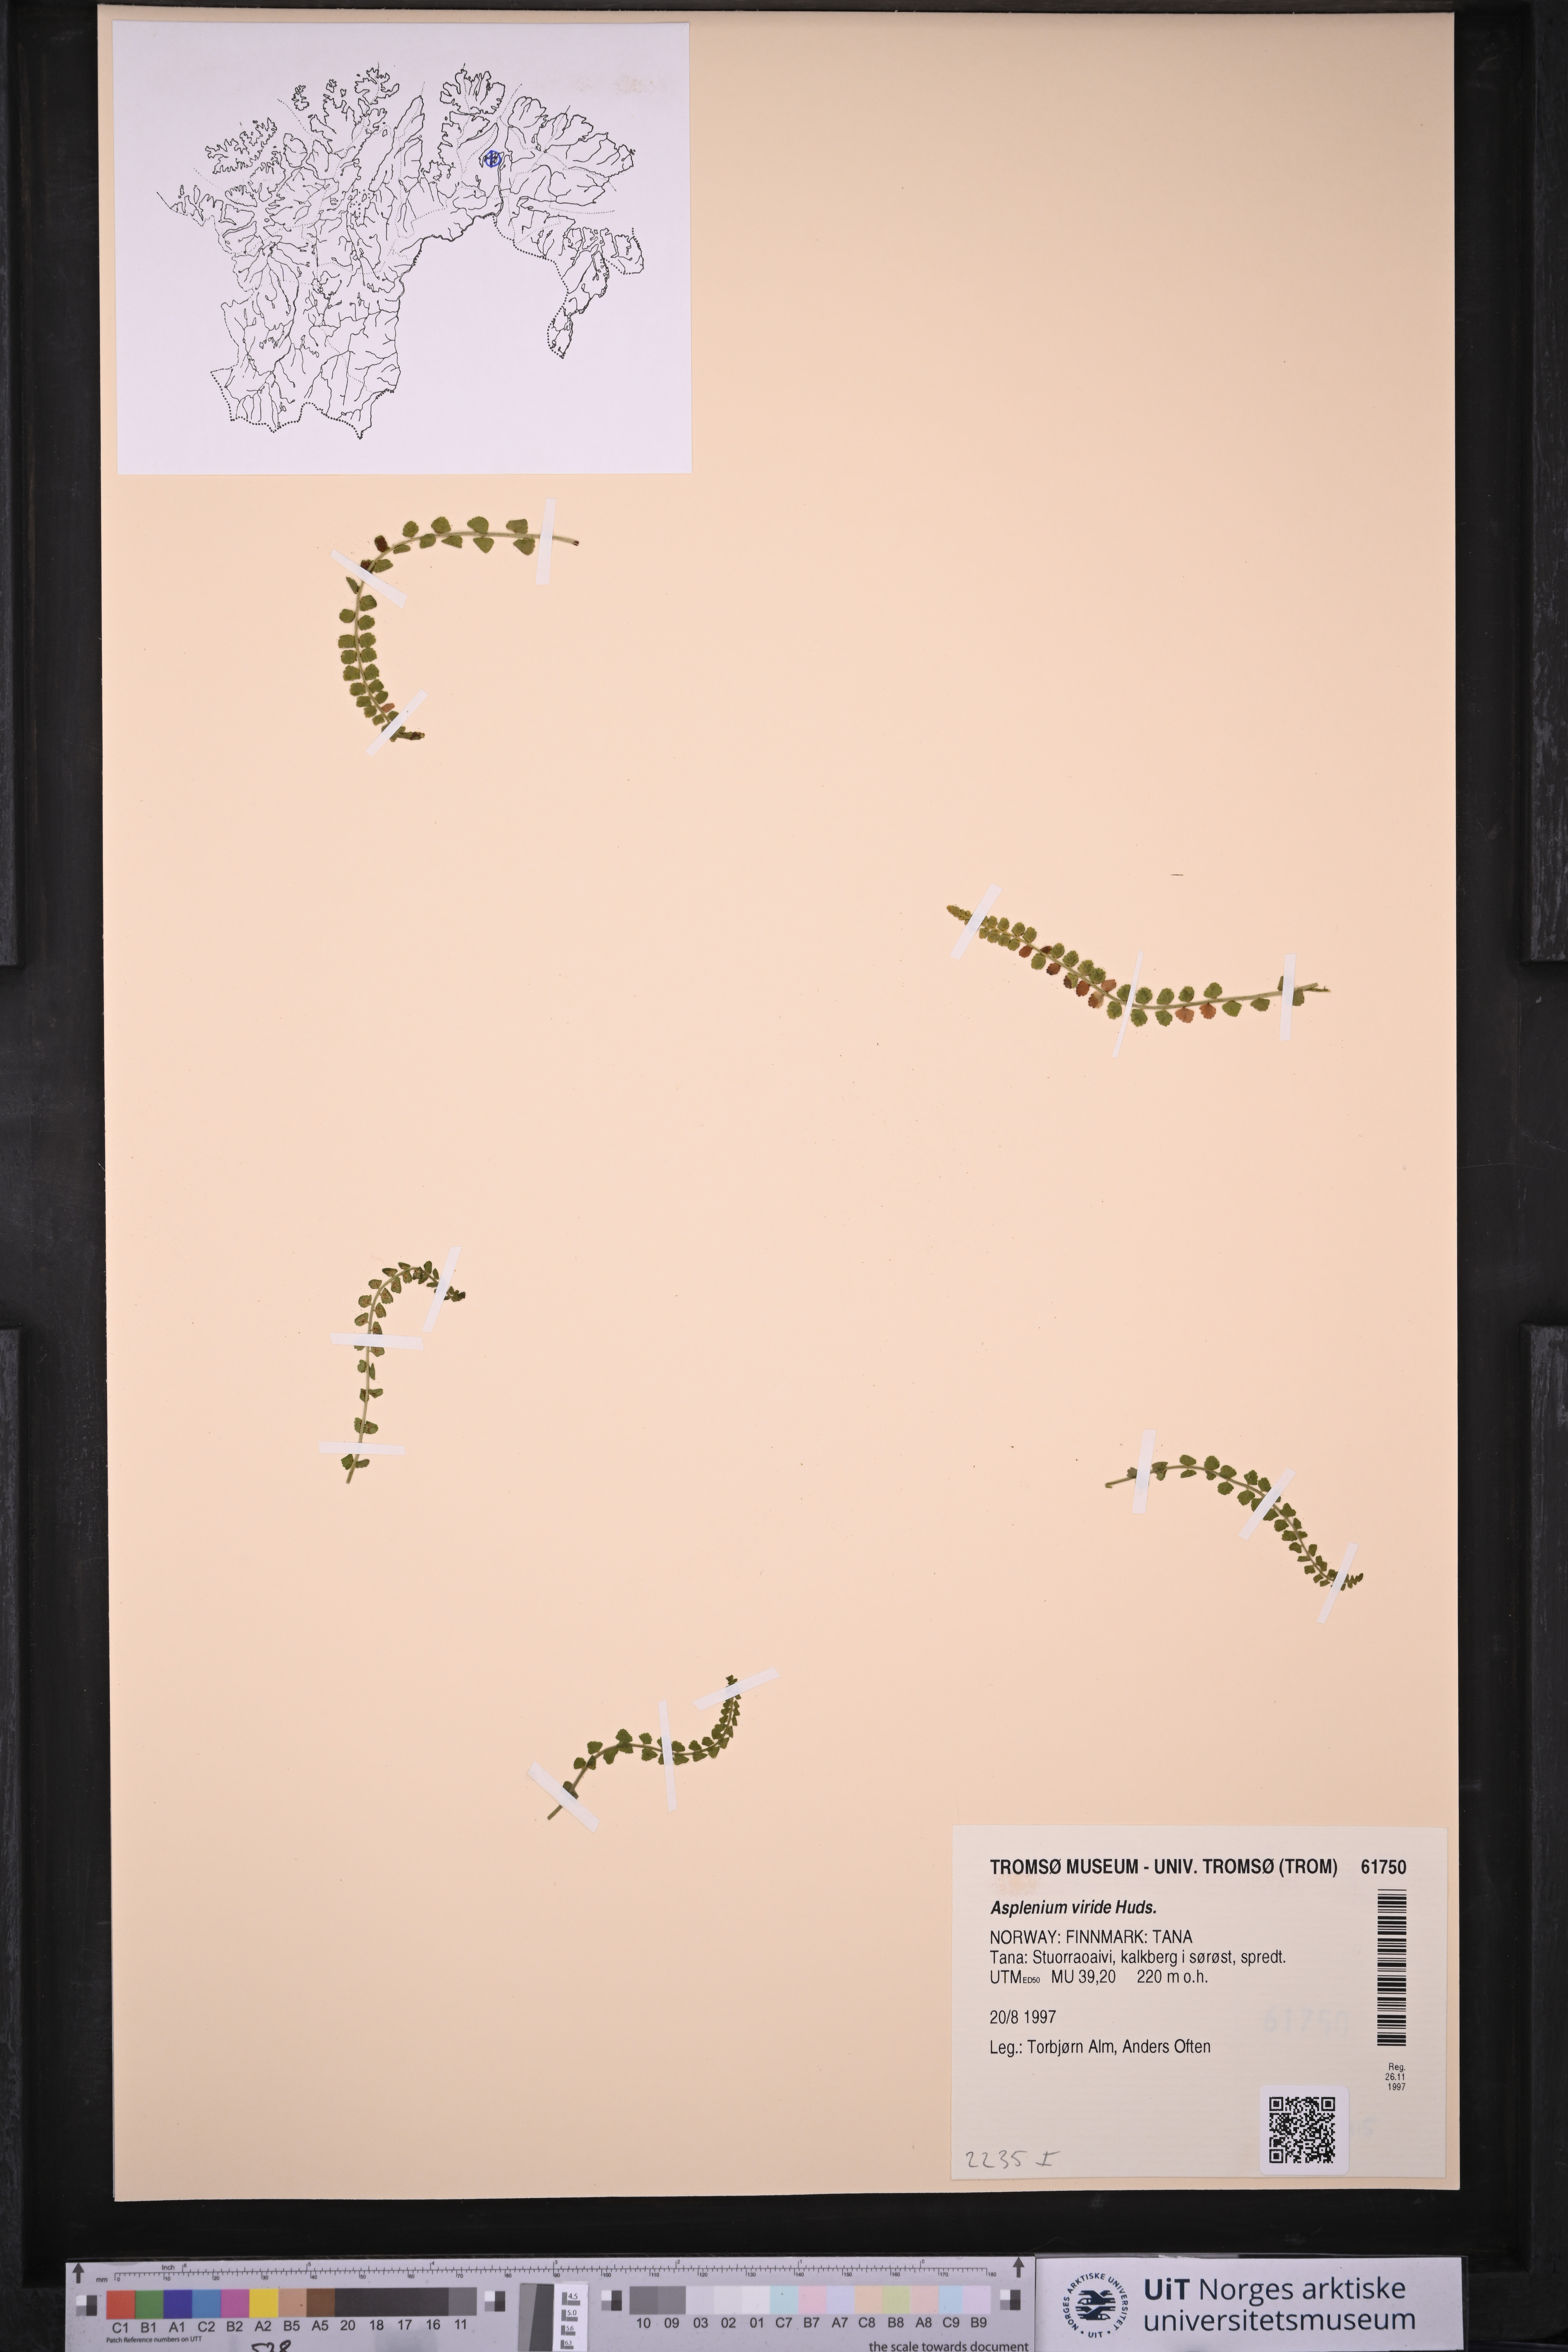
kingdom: Plantae
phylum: Tracheophyta
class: Polypodiopsida
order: Polypodiales
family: Aspleniaceae
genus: Asplenium
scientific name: Asplenium viride
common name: Green spleenwort
